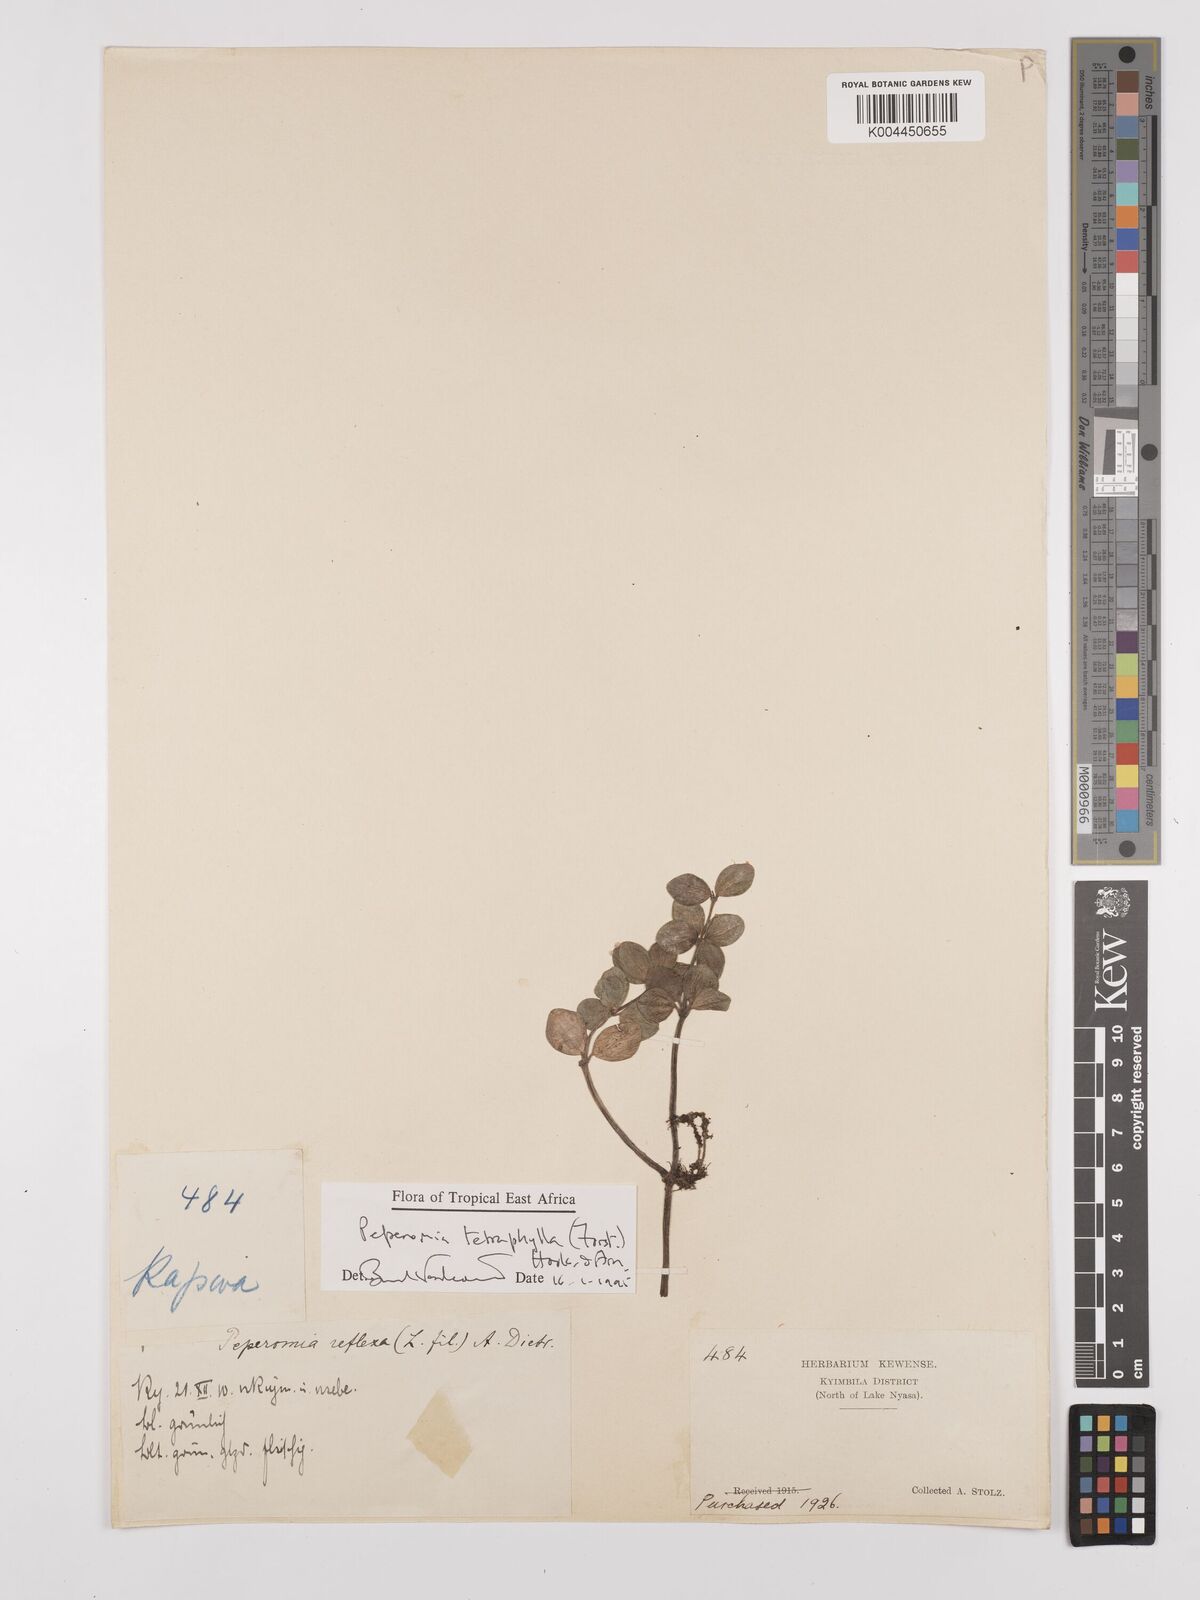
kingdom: Plantae
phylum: Tracheophyta
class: Magnoliopsida
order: Piperales
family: Piperaceae
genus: Peperomia
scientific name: Peperomia tetraphylla
